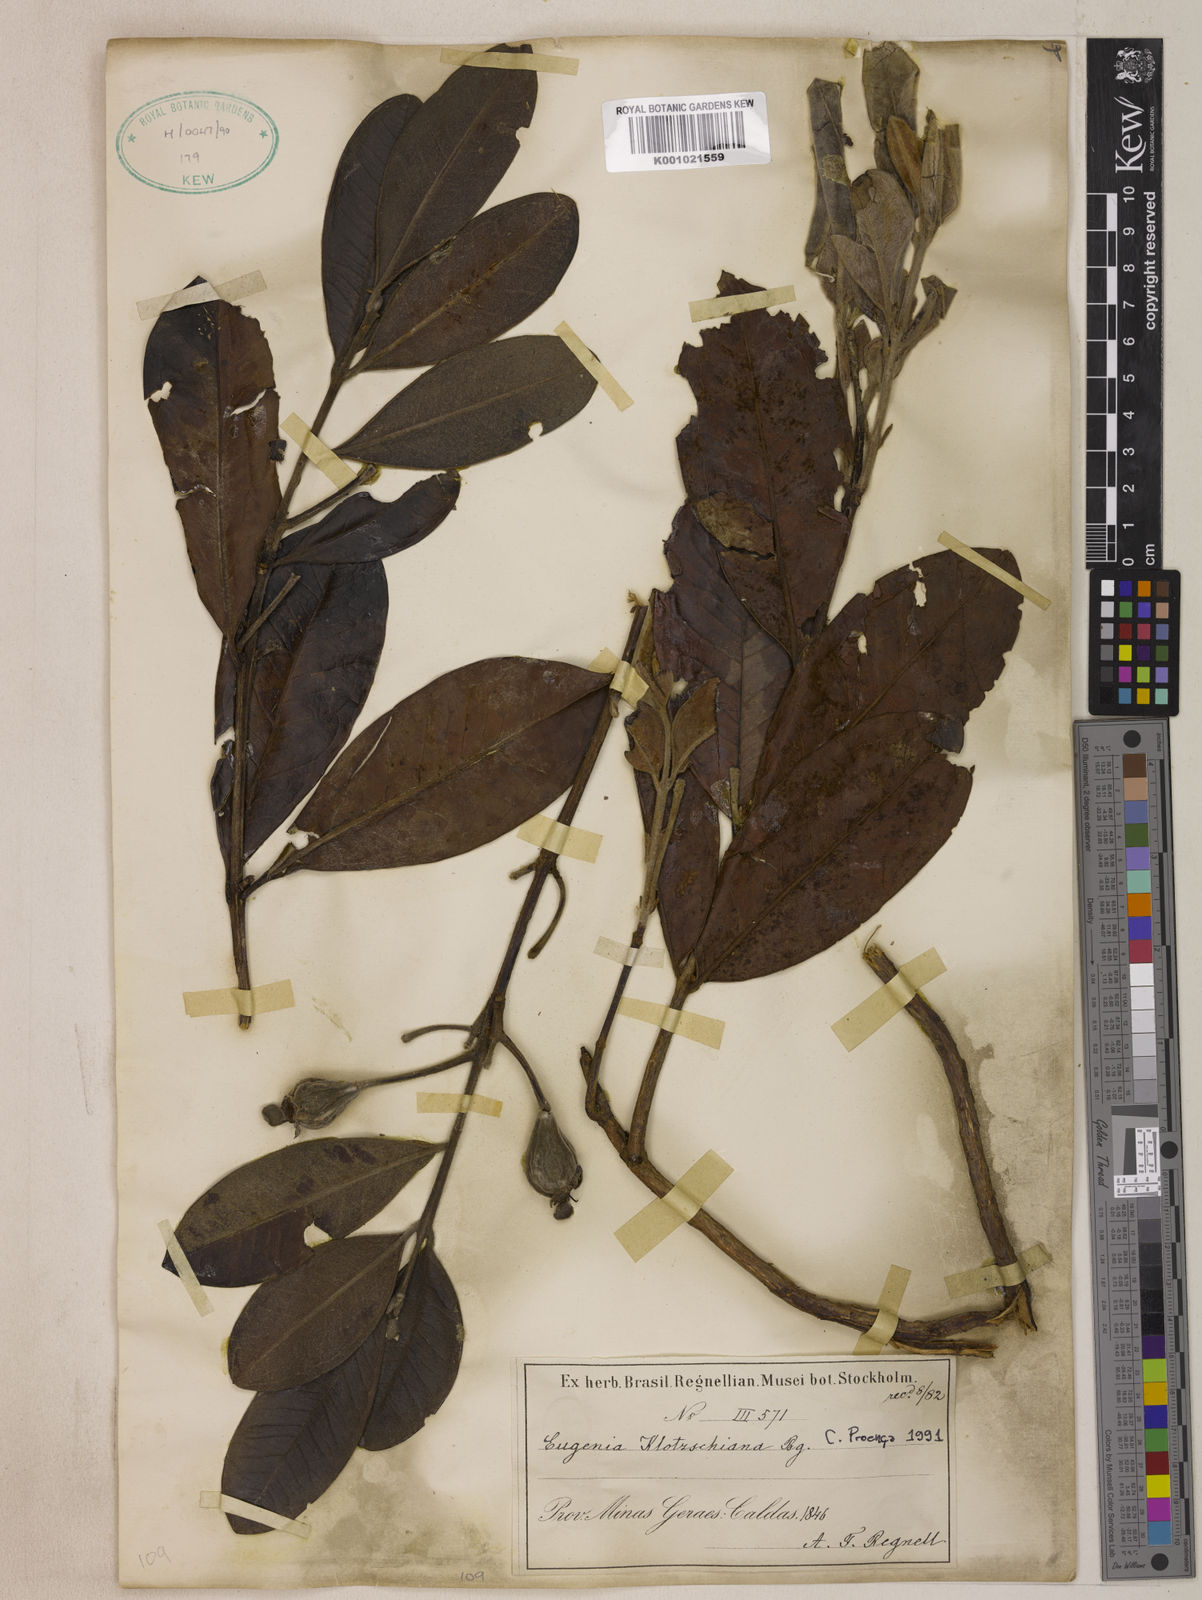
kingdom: Plantae
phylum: Tracheophyta
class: Magnoliopsida
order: Myrtales
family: Myrtaceae
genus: Eugenia
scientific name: Eugenia klotzschiana
